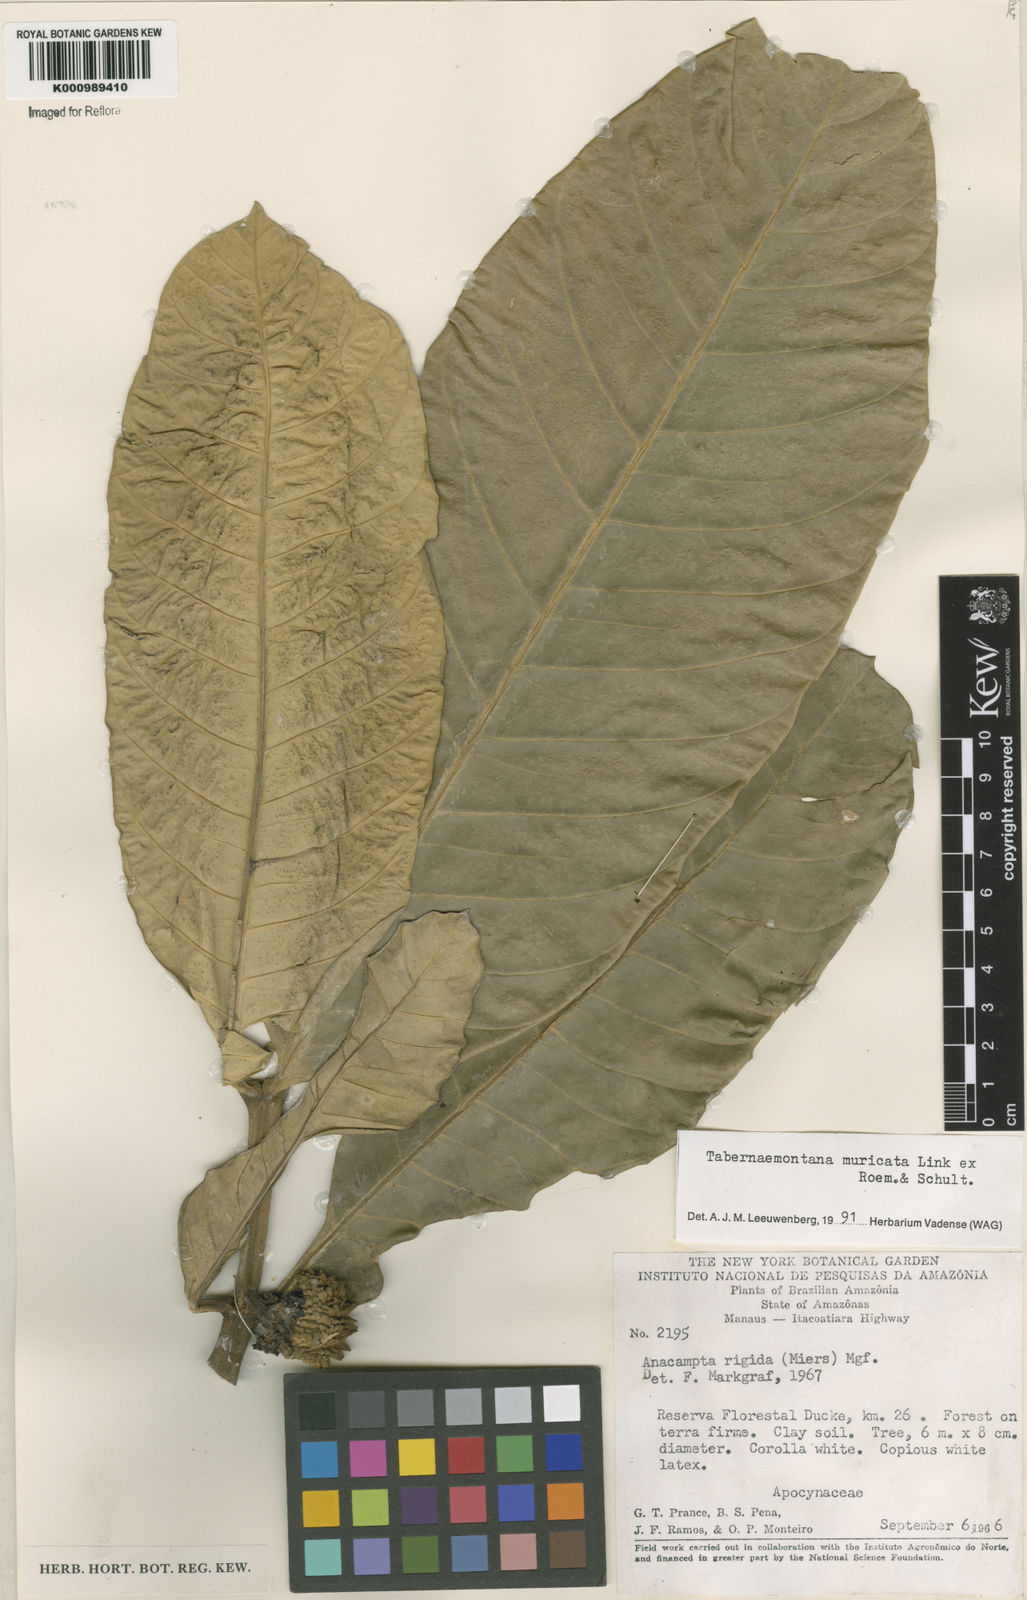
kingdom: Plantae
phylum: Tracheophyta
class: Magnoliopsida
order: Gentianales
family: Apocynaceae
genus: Tabernaemontana
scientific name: Tabernaemontana muricata
